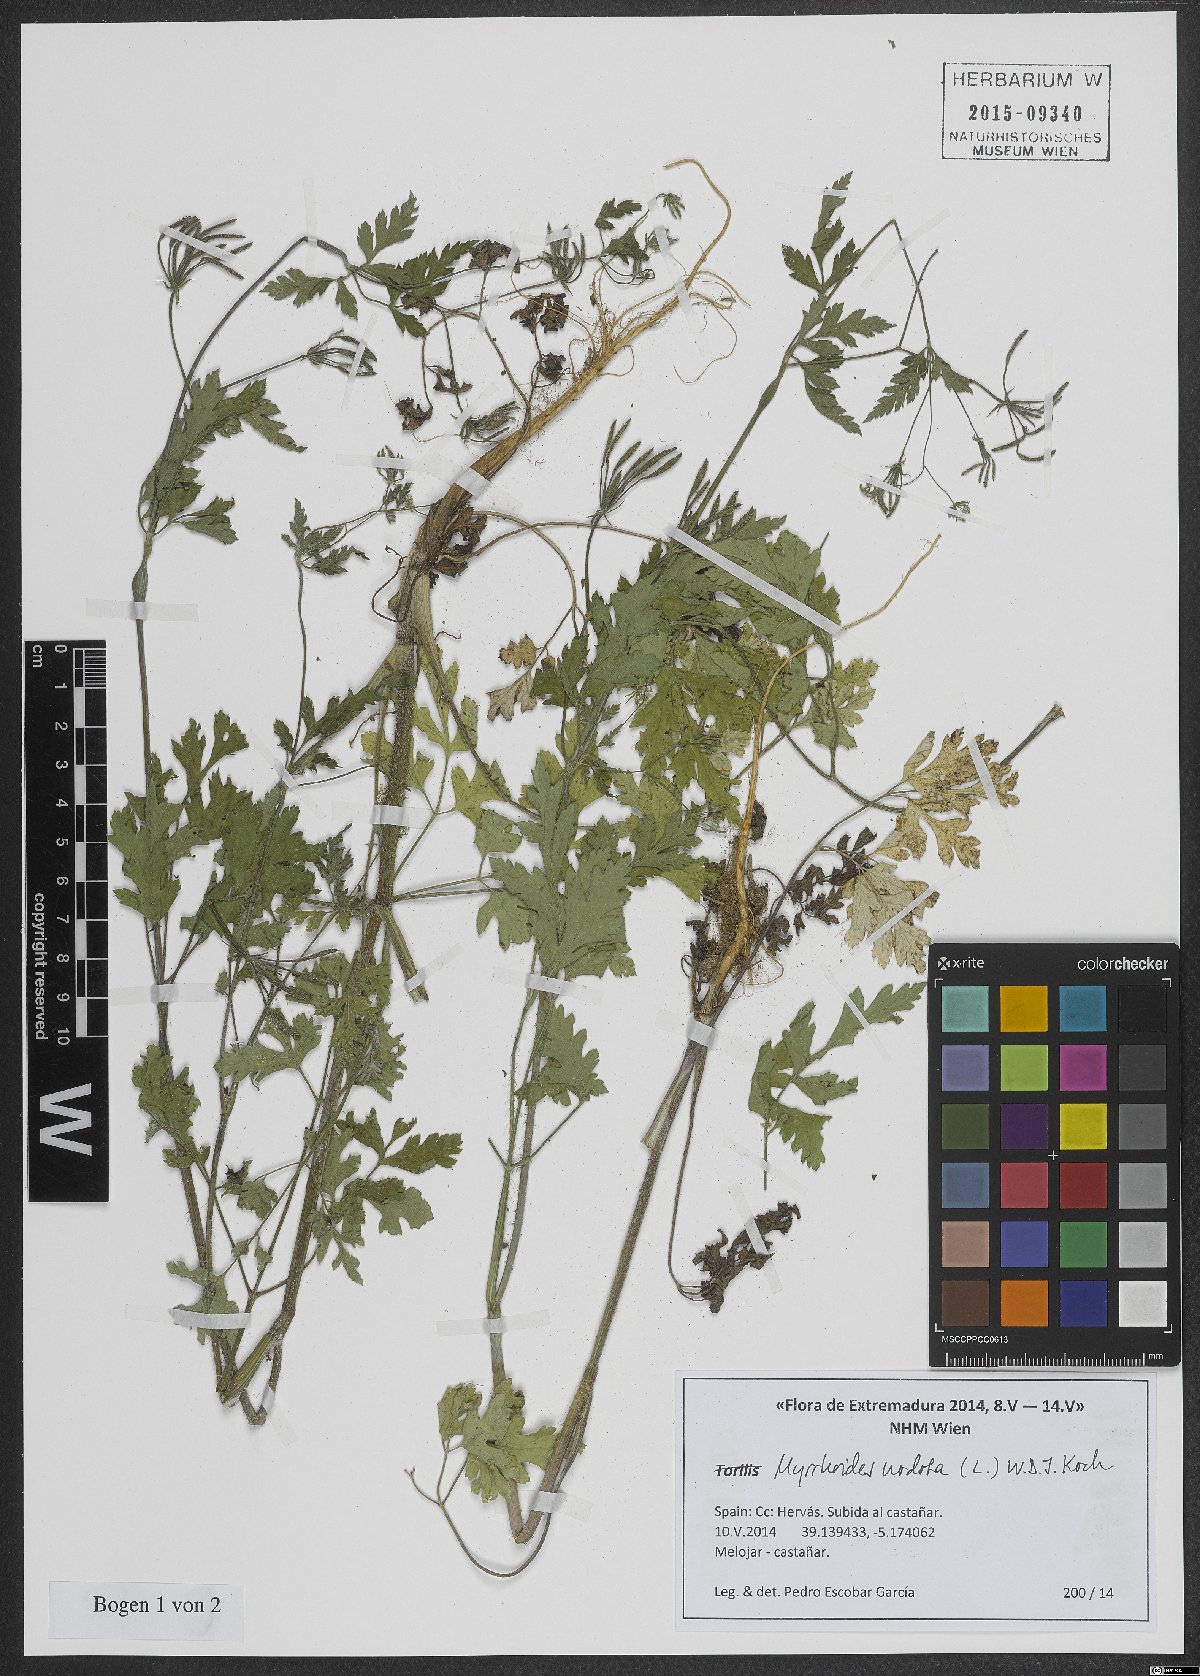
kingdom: Plantae
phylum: Tracheophyta
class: Magnoliopsida
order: Apiales
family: Apiaceae
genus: Chaerophyllum
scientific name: Chaerophyllum nodosum
